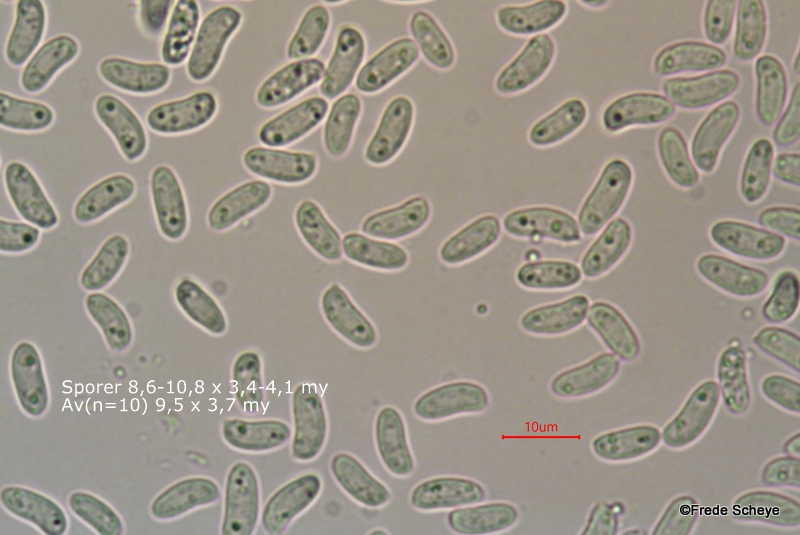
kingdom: Fungi
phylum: Basidiomycota
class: Agaricomycetes
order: Russulales
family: Peniophoraceae
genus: Peniophora
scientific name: Peniophora lycii
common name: grynet voksskind
